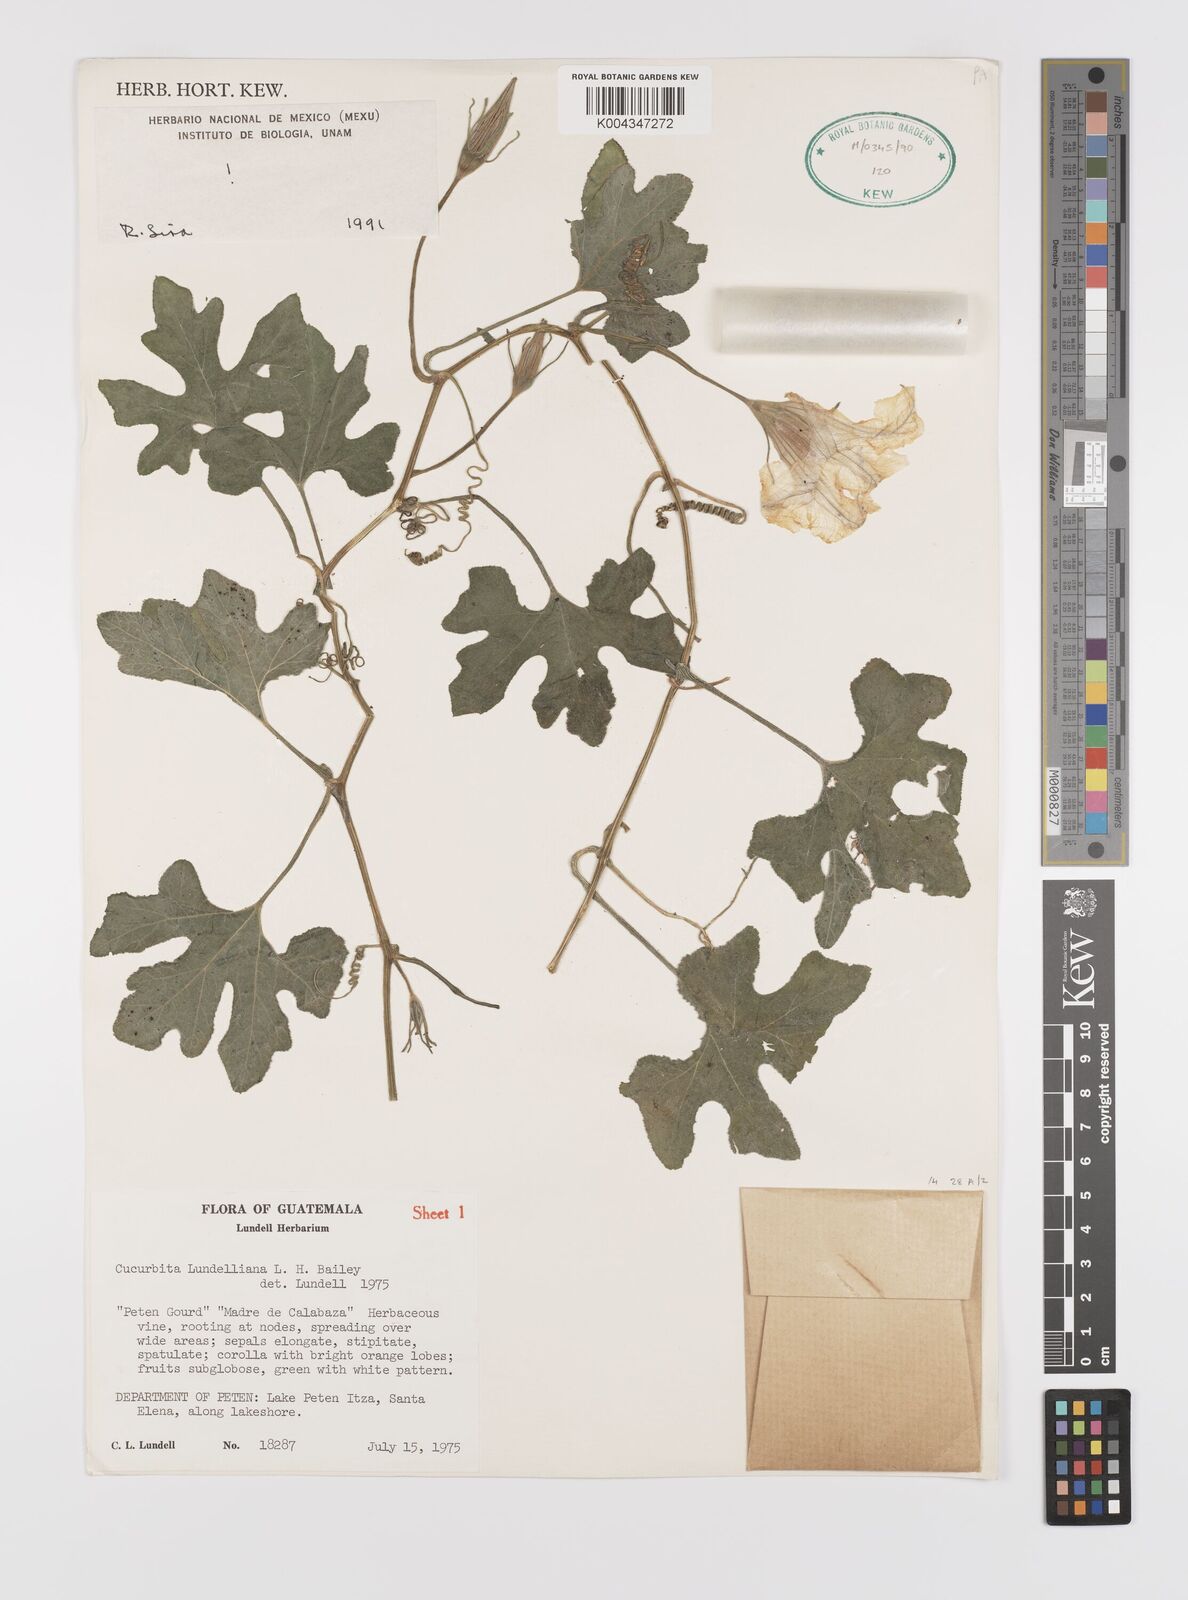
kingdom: Plantae
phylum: Tracheophyta
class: Magnoliopsida
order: Cucurbitales
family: Cucurbitaceae
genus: Cucurbita
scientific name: Cucurbita lundelliana
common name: Bitter pumpkin
